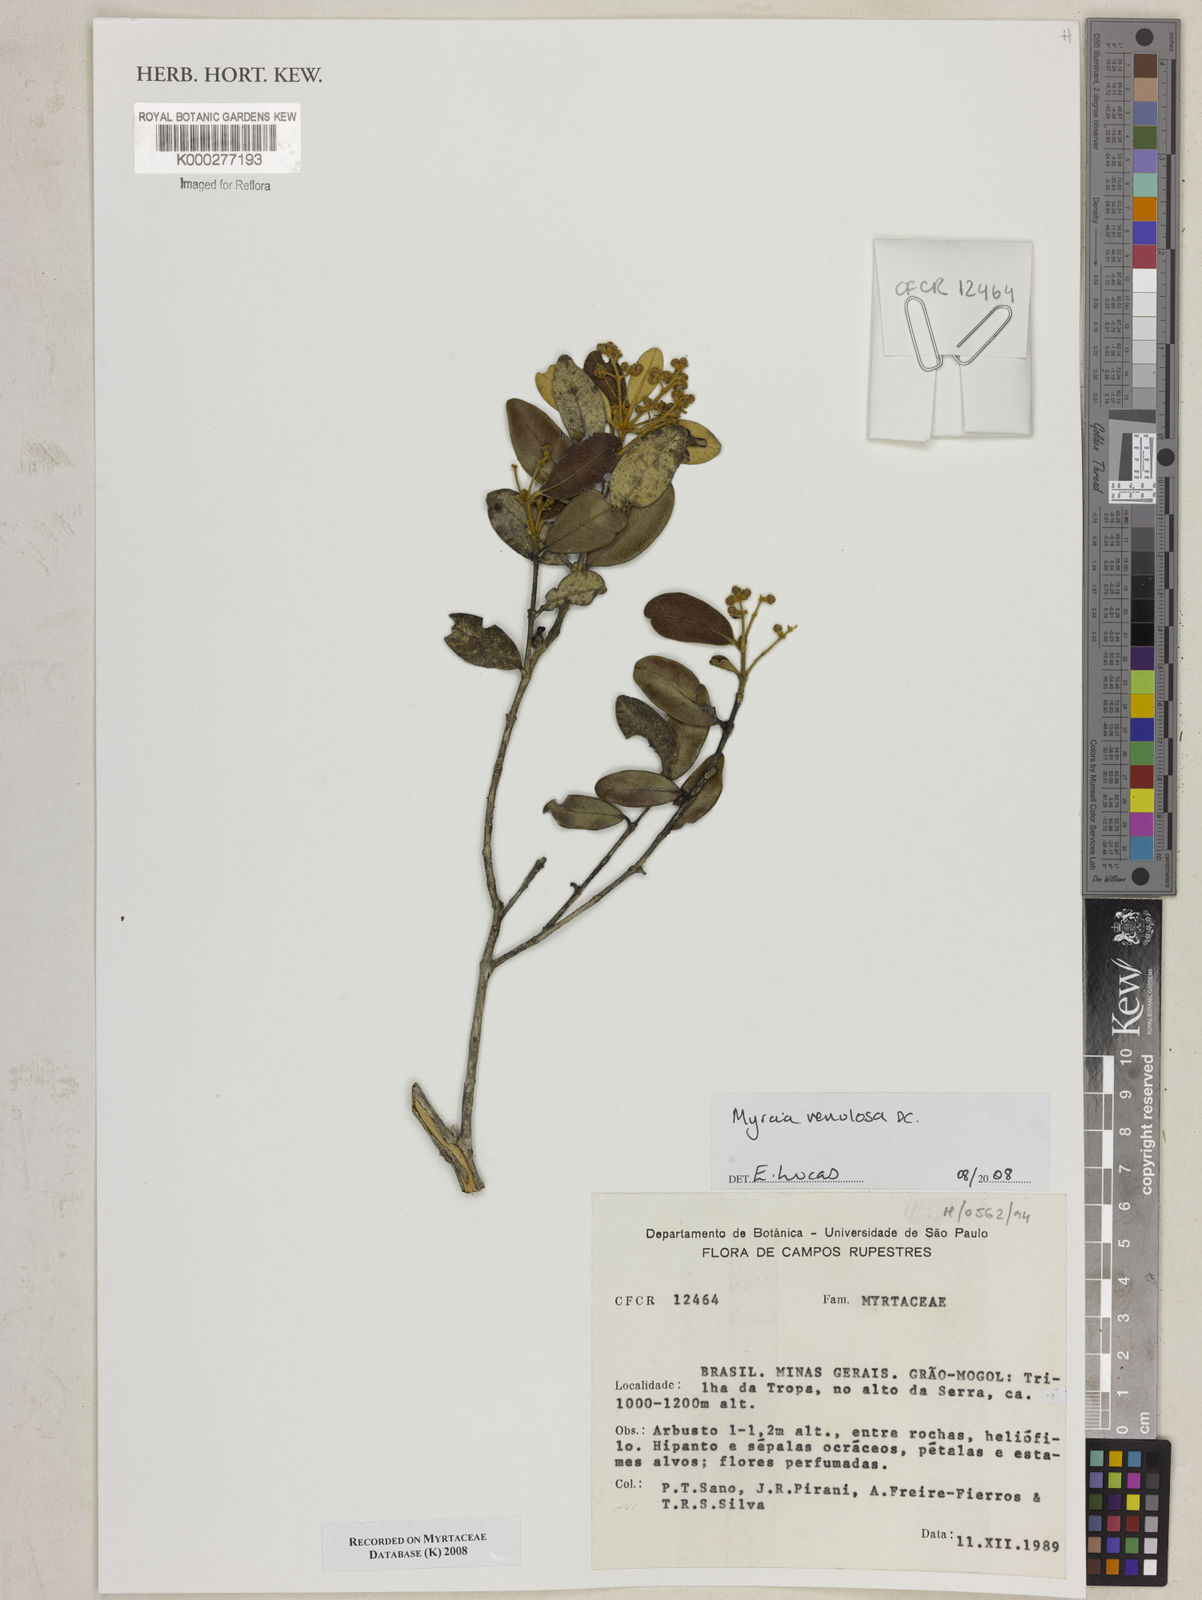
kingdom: Plantae
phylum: Tracheophyta
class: Magnoliopsida
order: Myrtales
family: Myrtaceae
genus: Myrcia
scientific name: Myrcia venulosa
